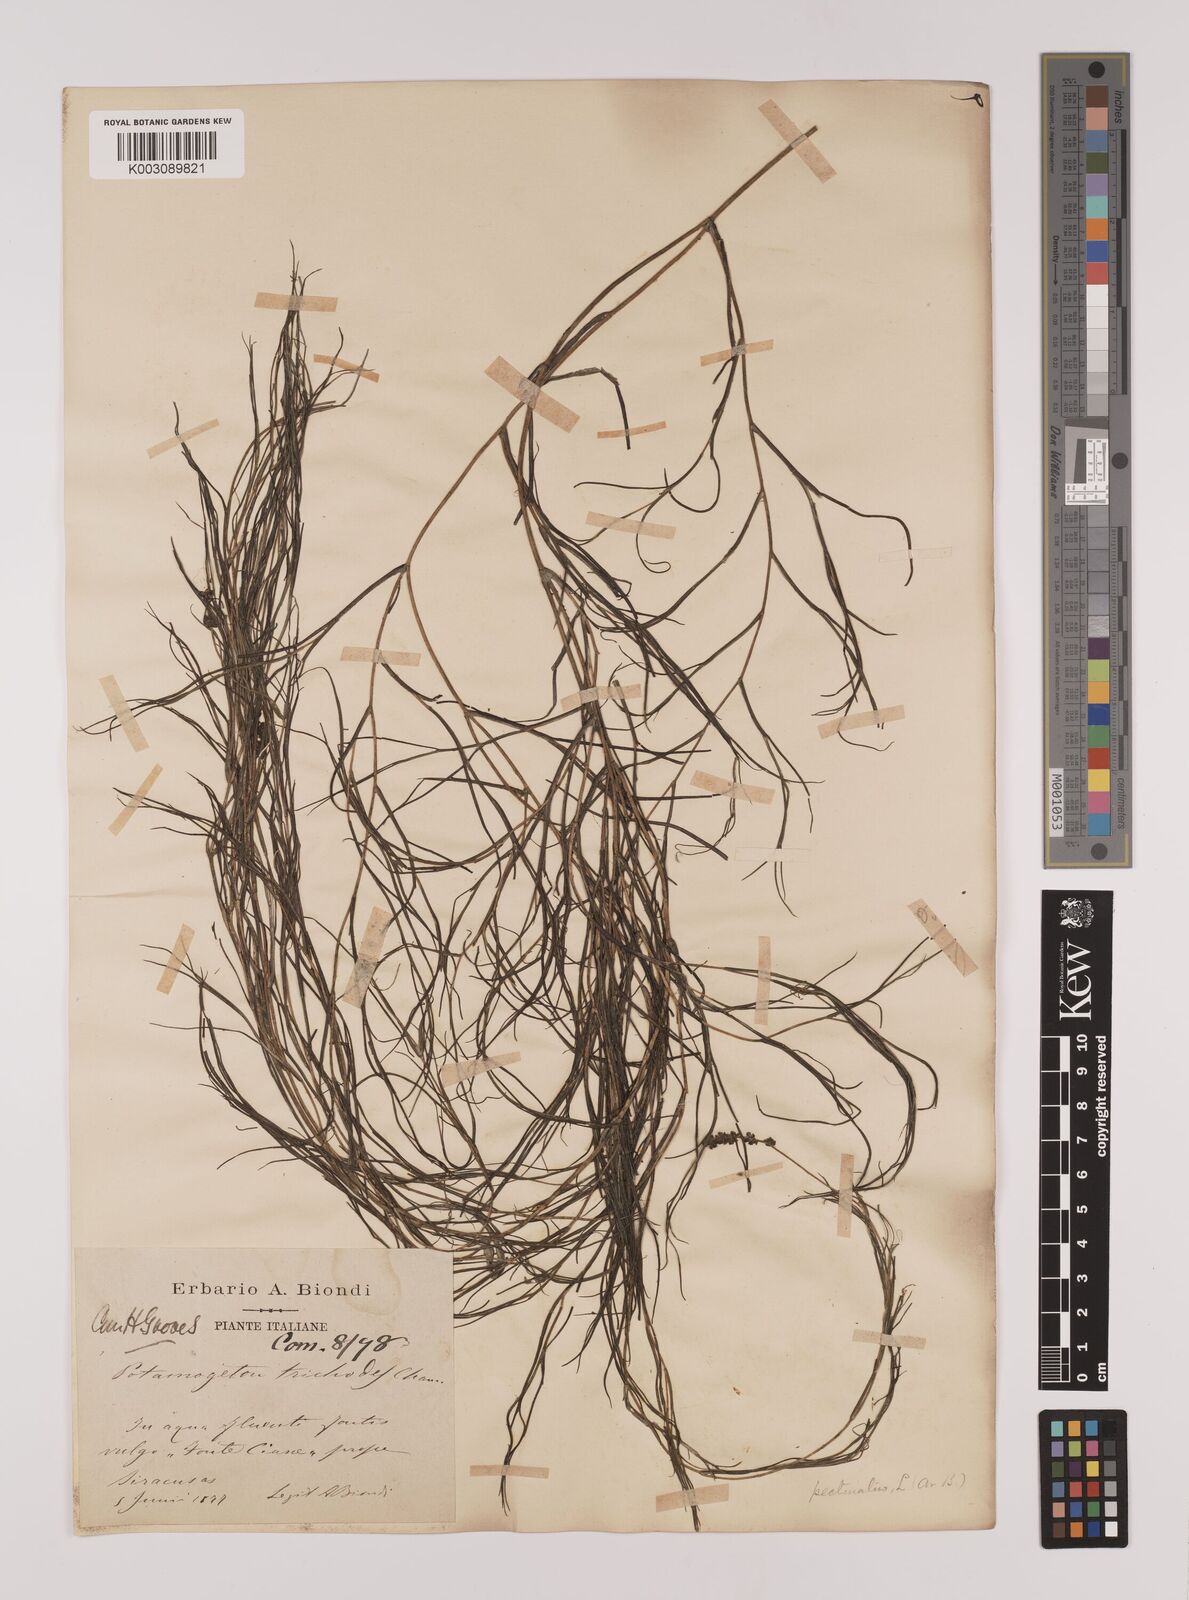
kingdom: Plantae
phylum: Tracheophyta
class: Liliopsida
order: Alismatales
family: Potamogetonaceae
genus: Stuckenia
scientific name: Stuckenia pectinata
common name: Sago pondweed
